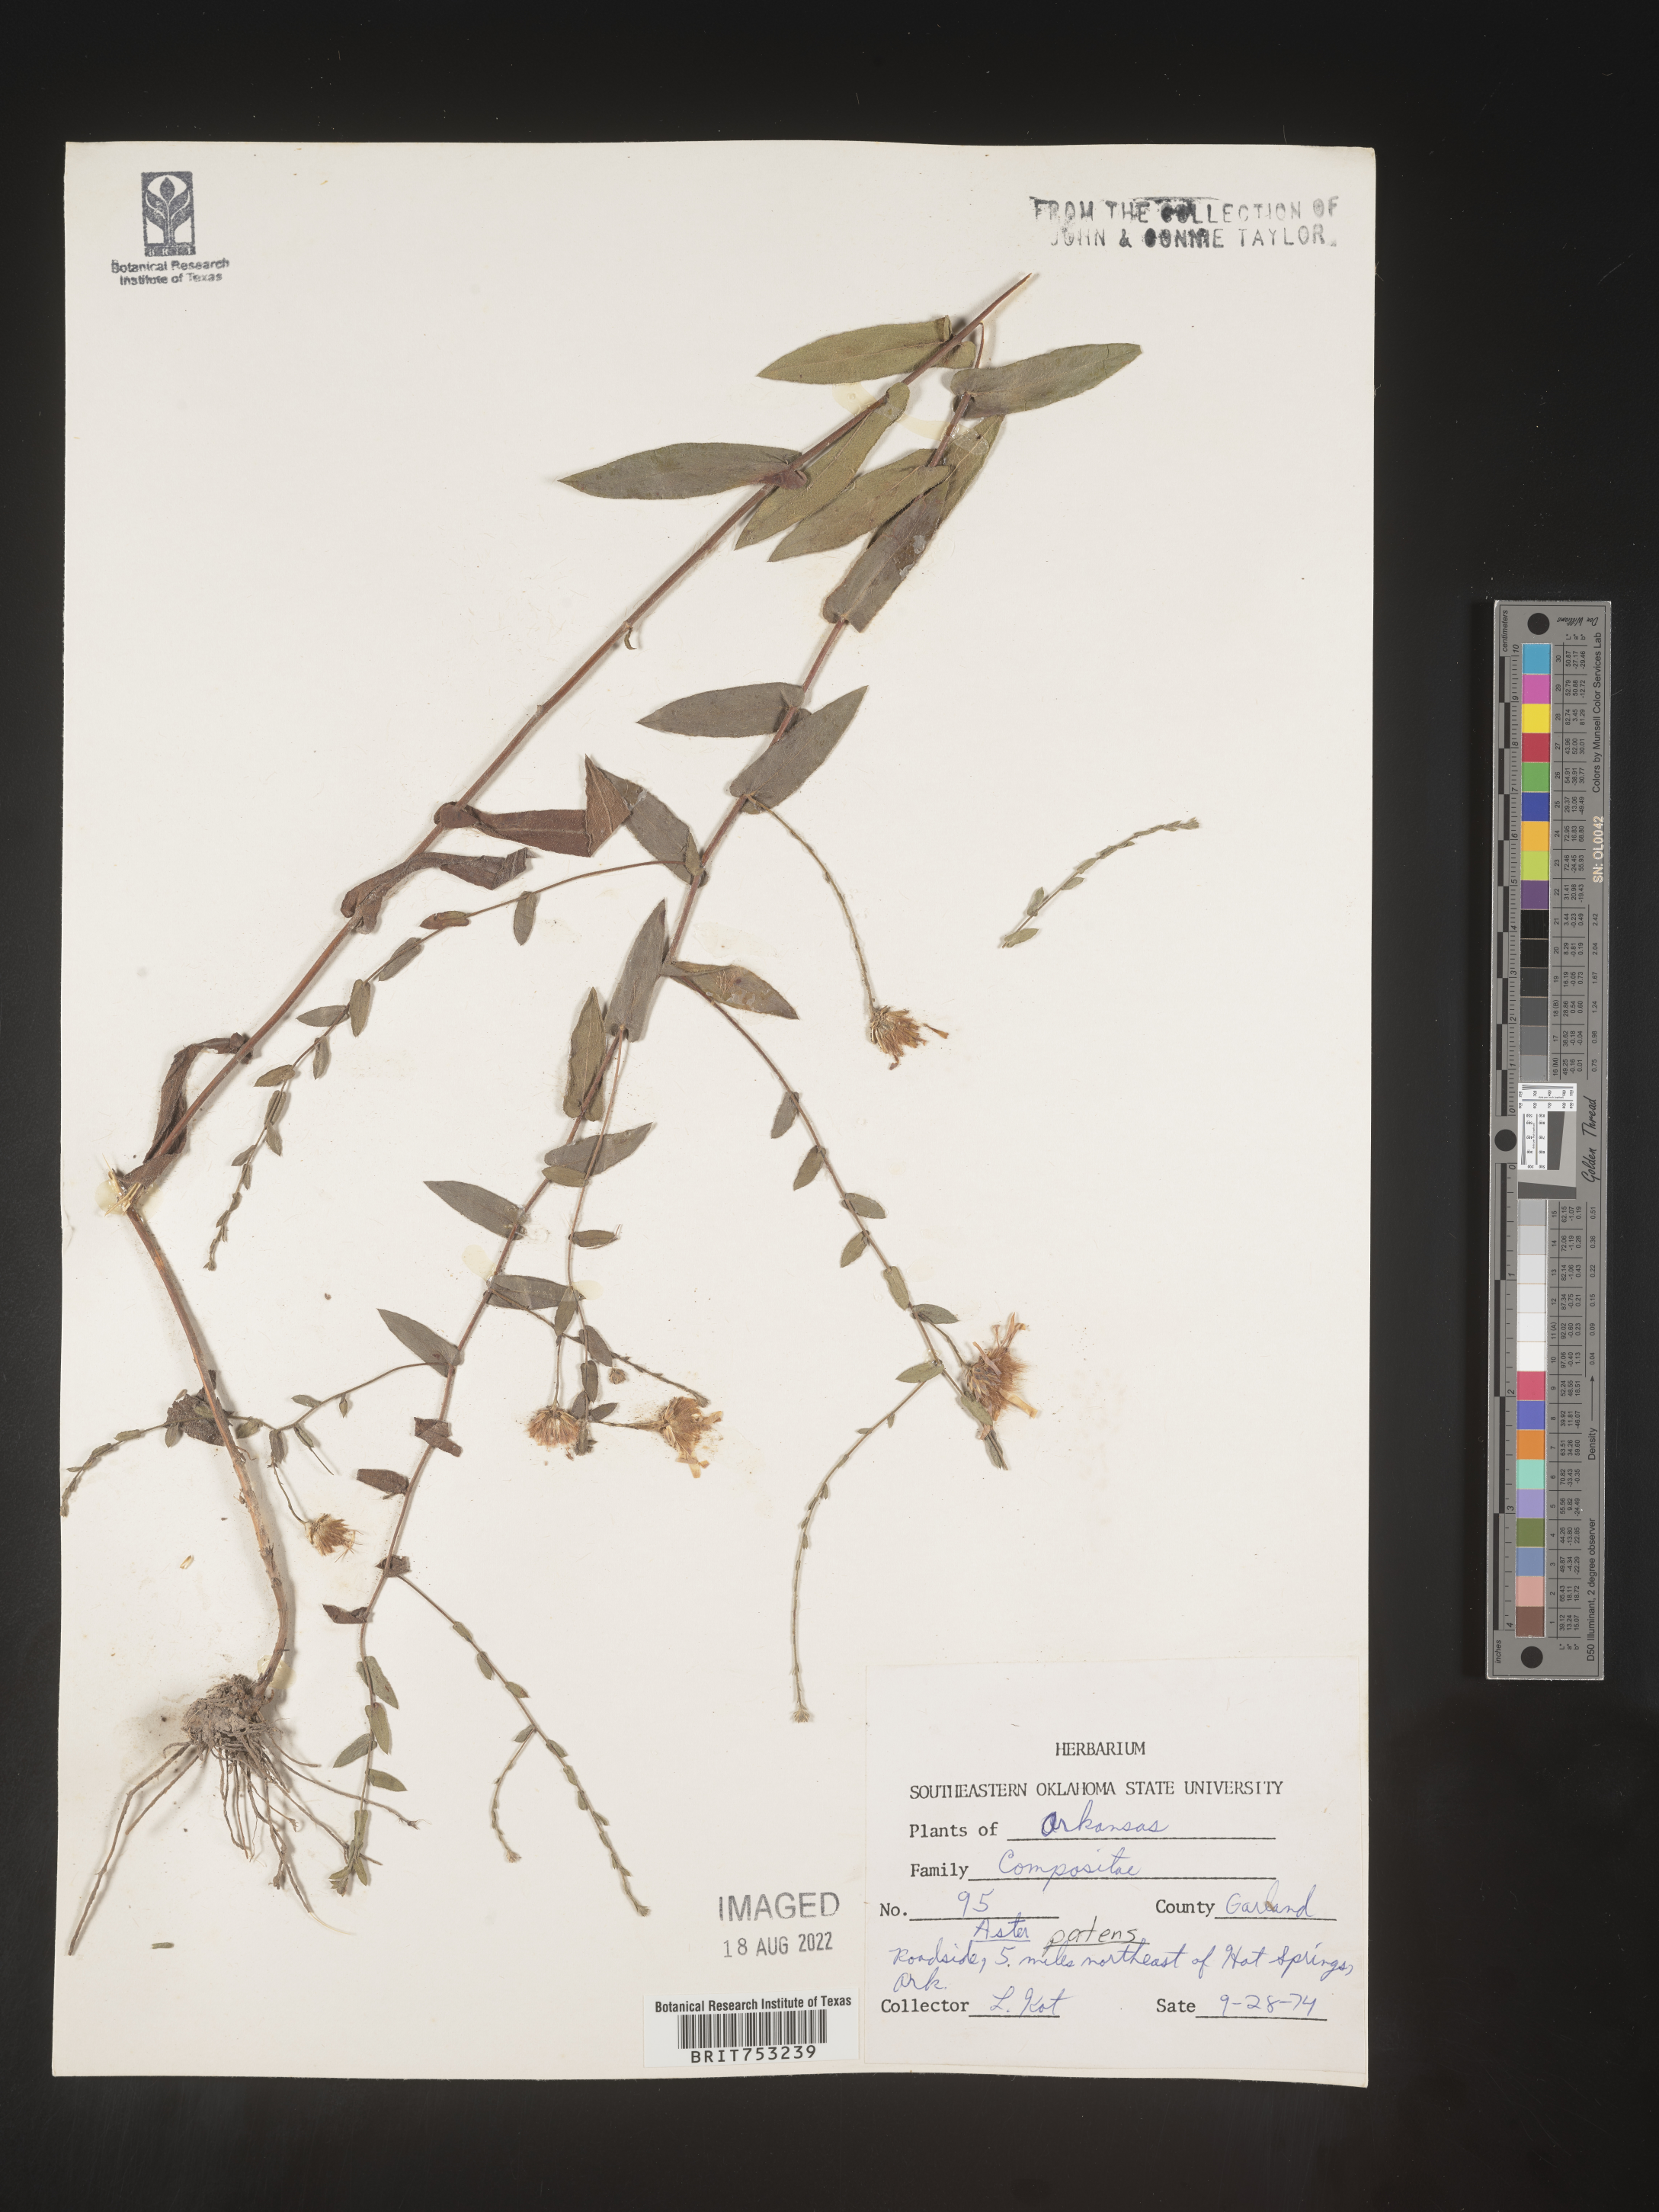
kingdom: Plantae
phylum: Tracheophyta
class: Magnoliopsida
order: Asterales
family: Asteraceae
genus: Symphyotrichum
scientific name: Symphyotrichum patens
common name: Late purple aster
